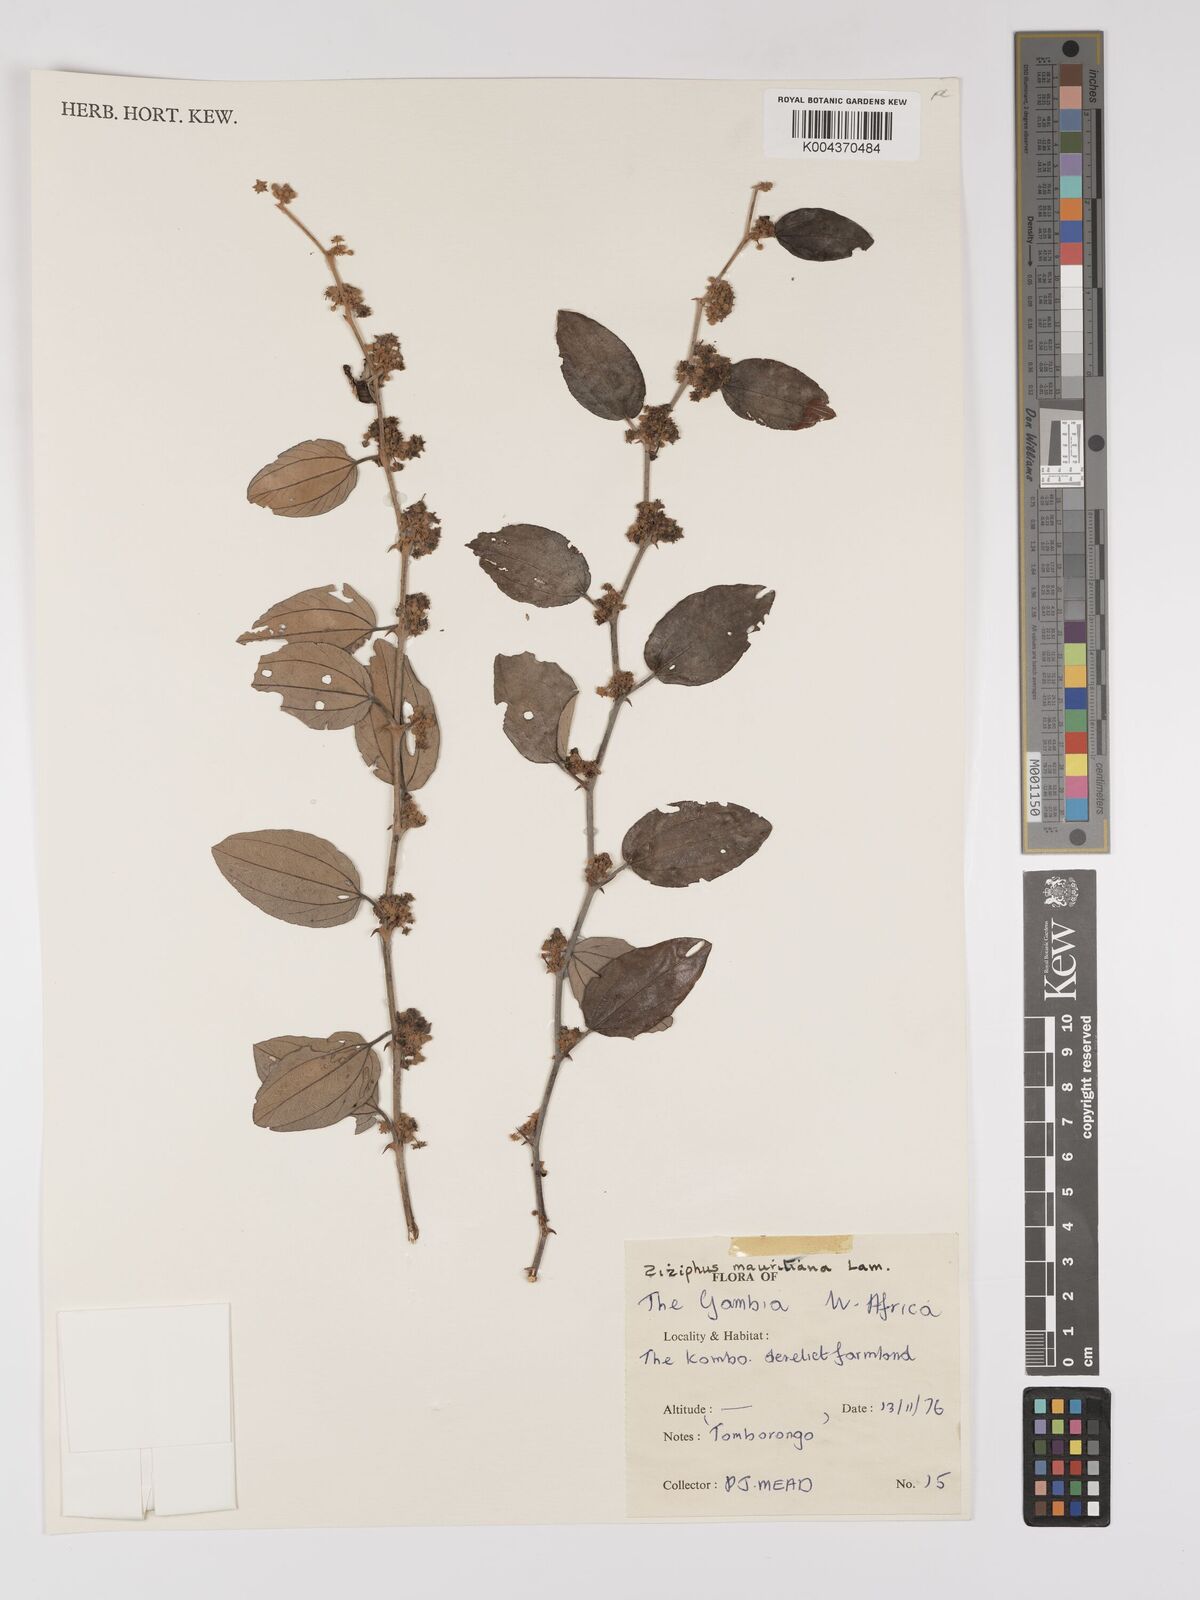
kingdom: Plantae
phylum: Tracheophyta
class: Magnoliopsida
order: Rosales
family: Rhamnaceae
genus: Ziziphus
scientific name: Ziziphus mauritiana
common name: Indian jujube
